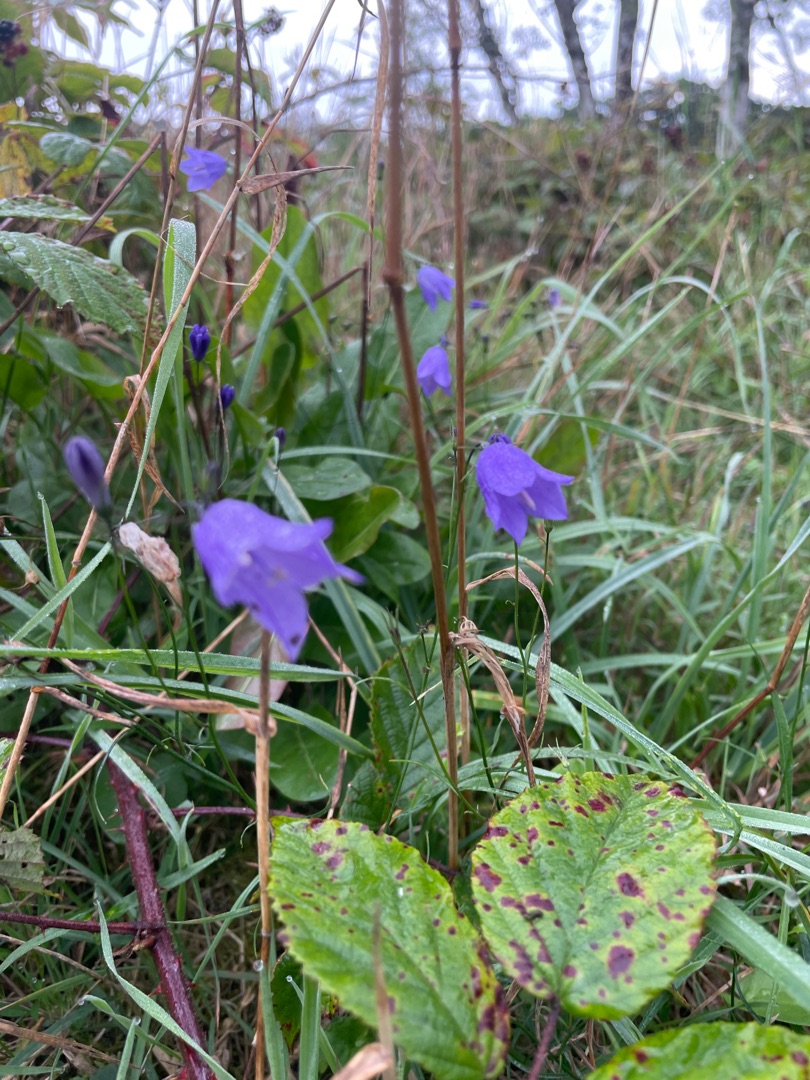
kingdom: Plantae
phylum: Tracheophyta
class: Magnoliopsida
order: Asterales
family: Campanulaceae
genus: Campanula
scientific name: Campanula rotundifolia
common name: Liden klokke
